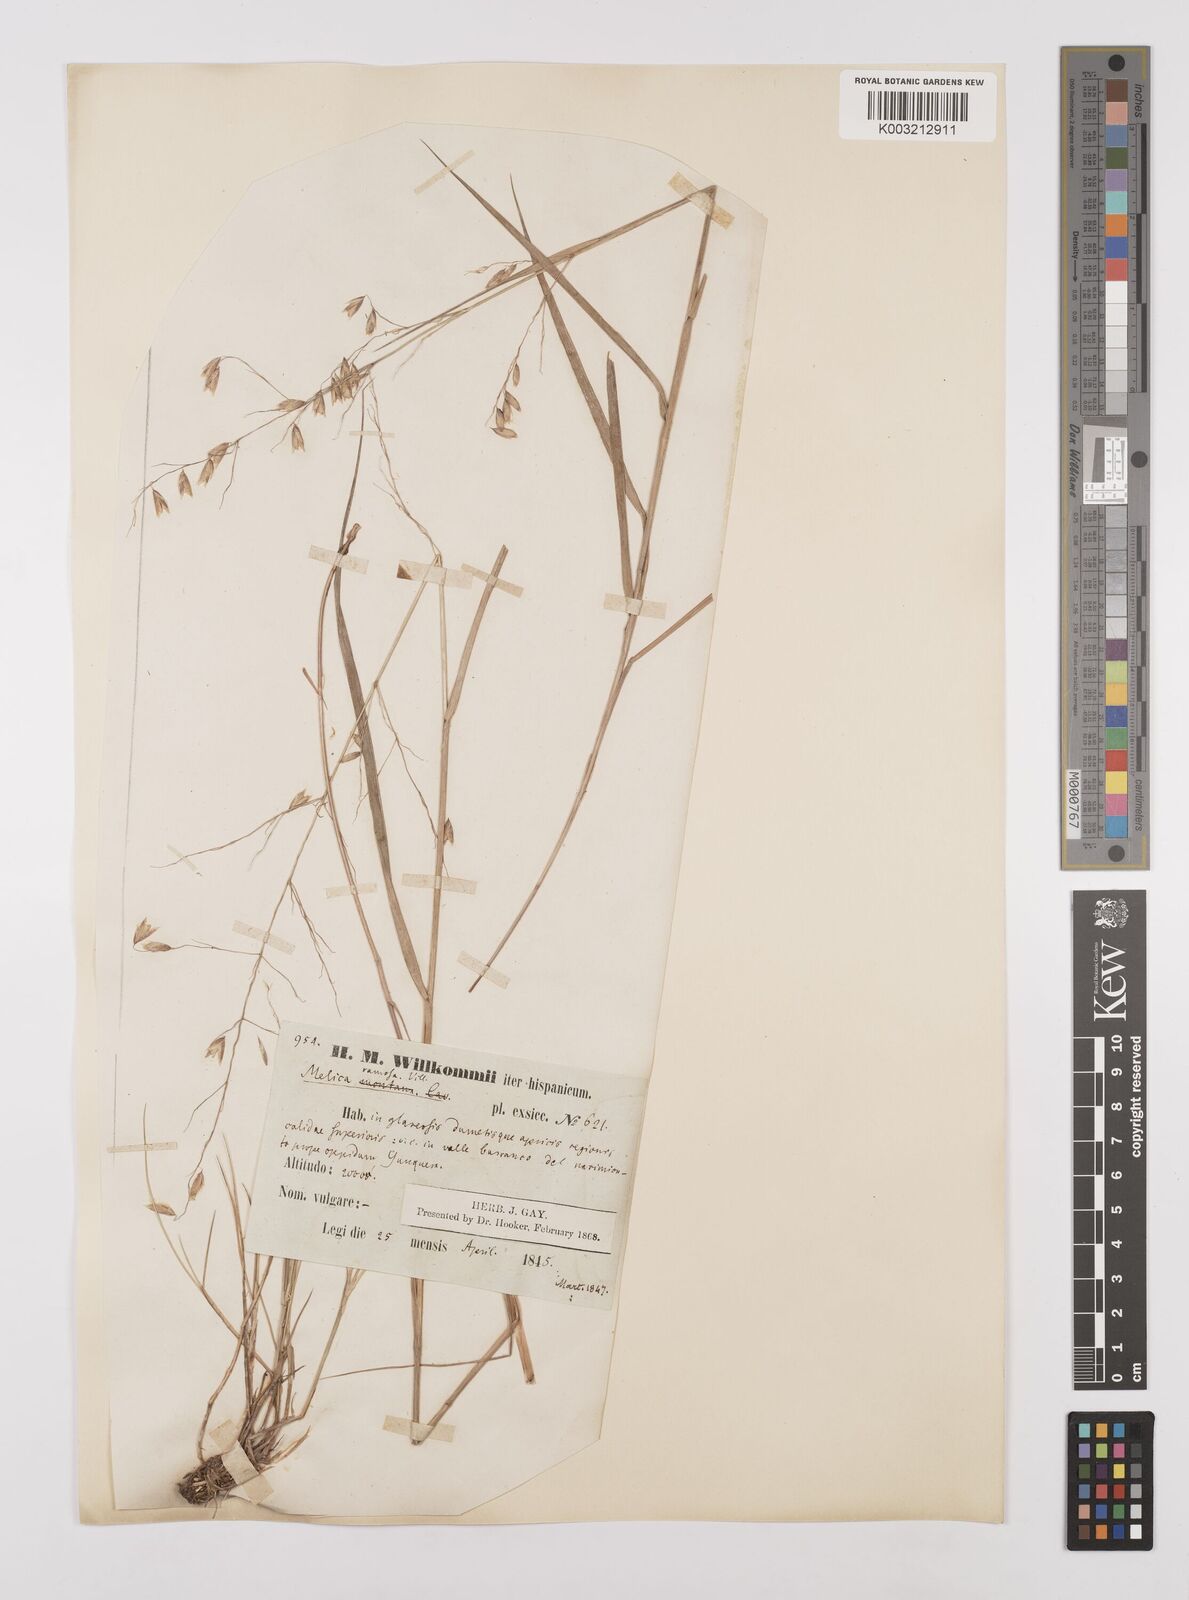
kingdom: Plantae
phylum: Tracheophyta
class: Liliopsida
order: Poales
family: Poaceae
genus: Melica
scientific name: Melica minuta
